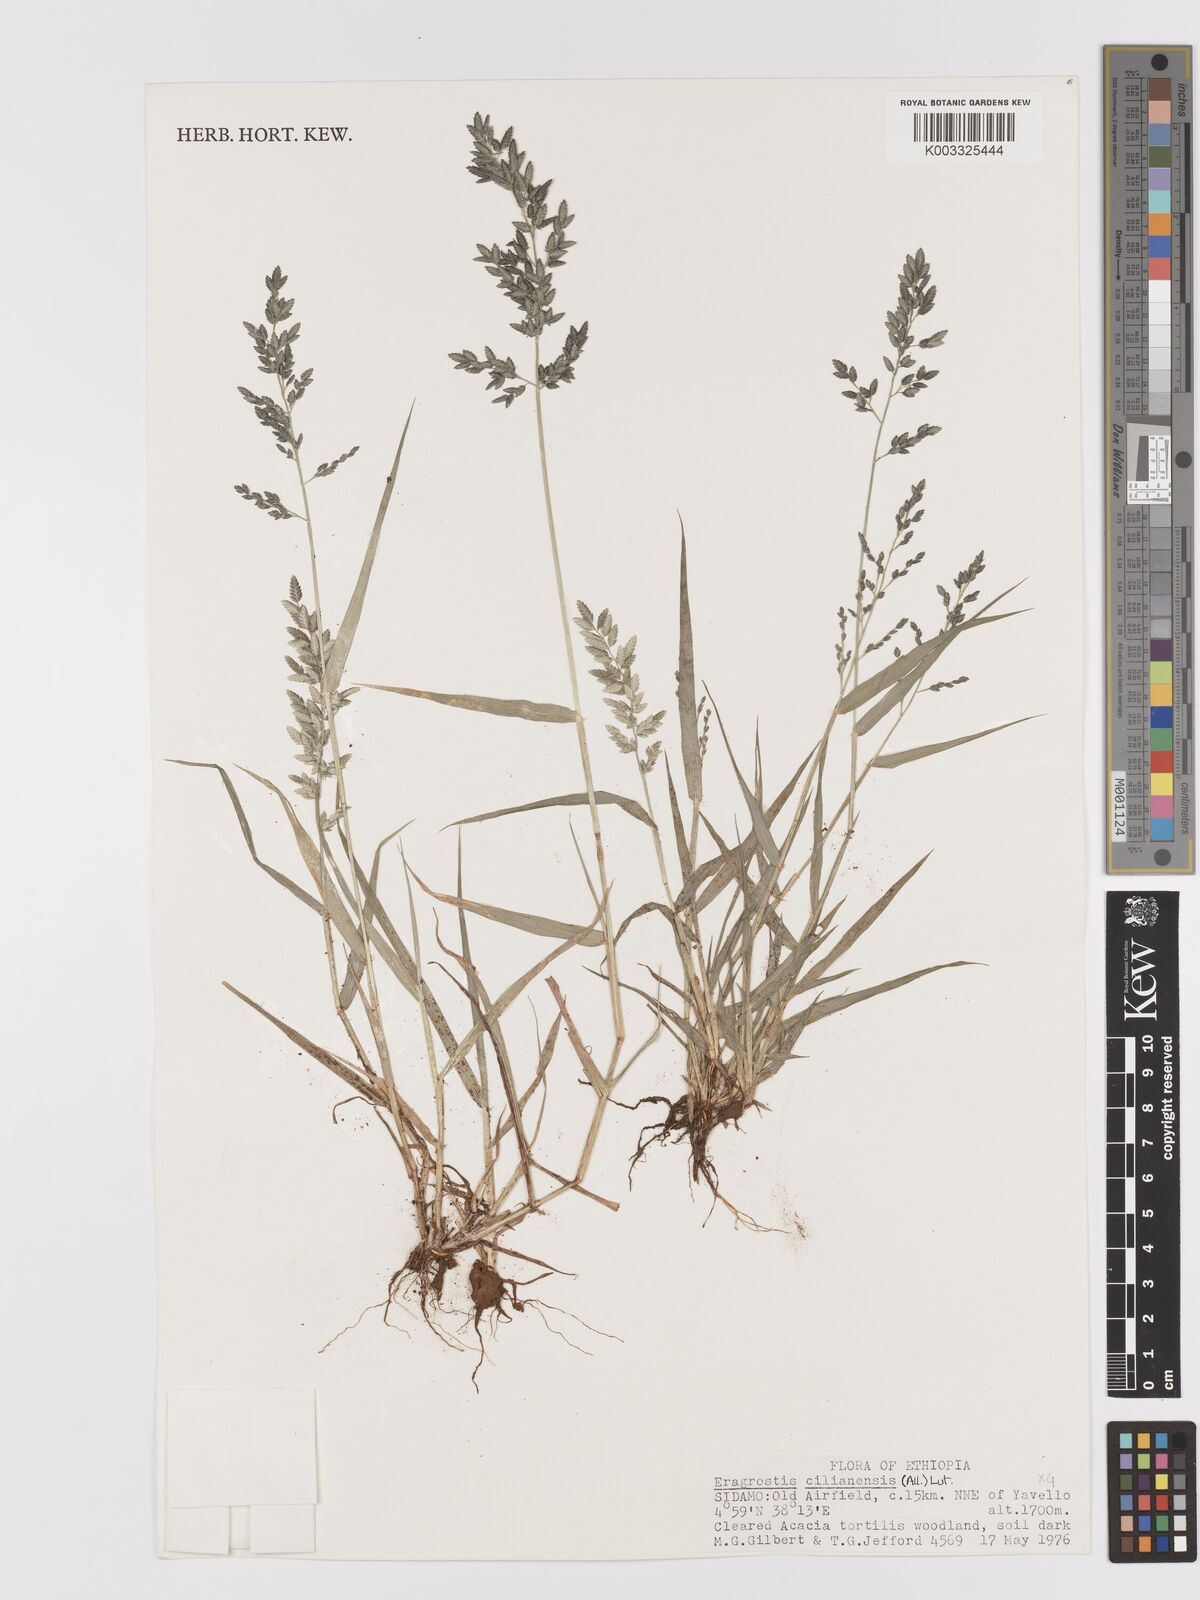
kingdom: Plantae
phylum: Tracheophyta
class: Liliopsida
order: Poales
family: Poaceae
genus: Eragrostis
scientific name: Eragrostis cilianensis
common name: Stinkgrass
